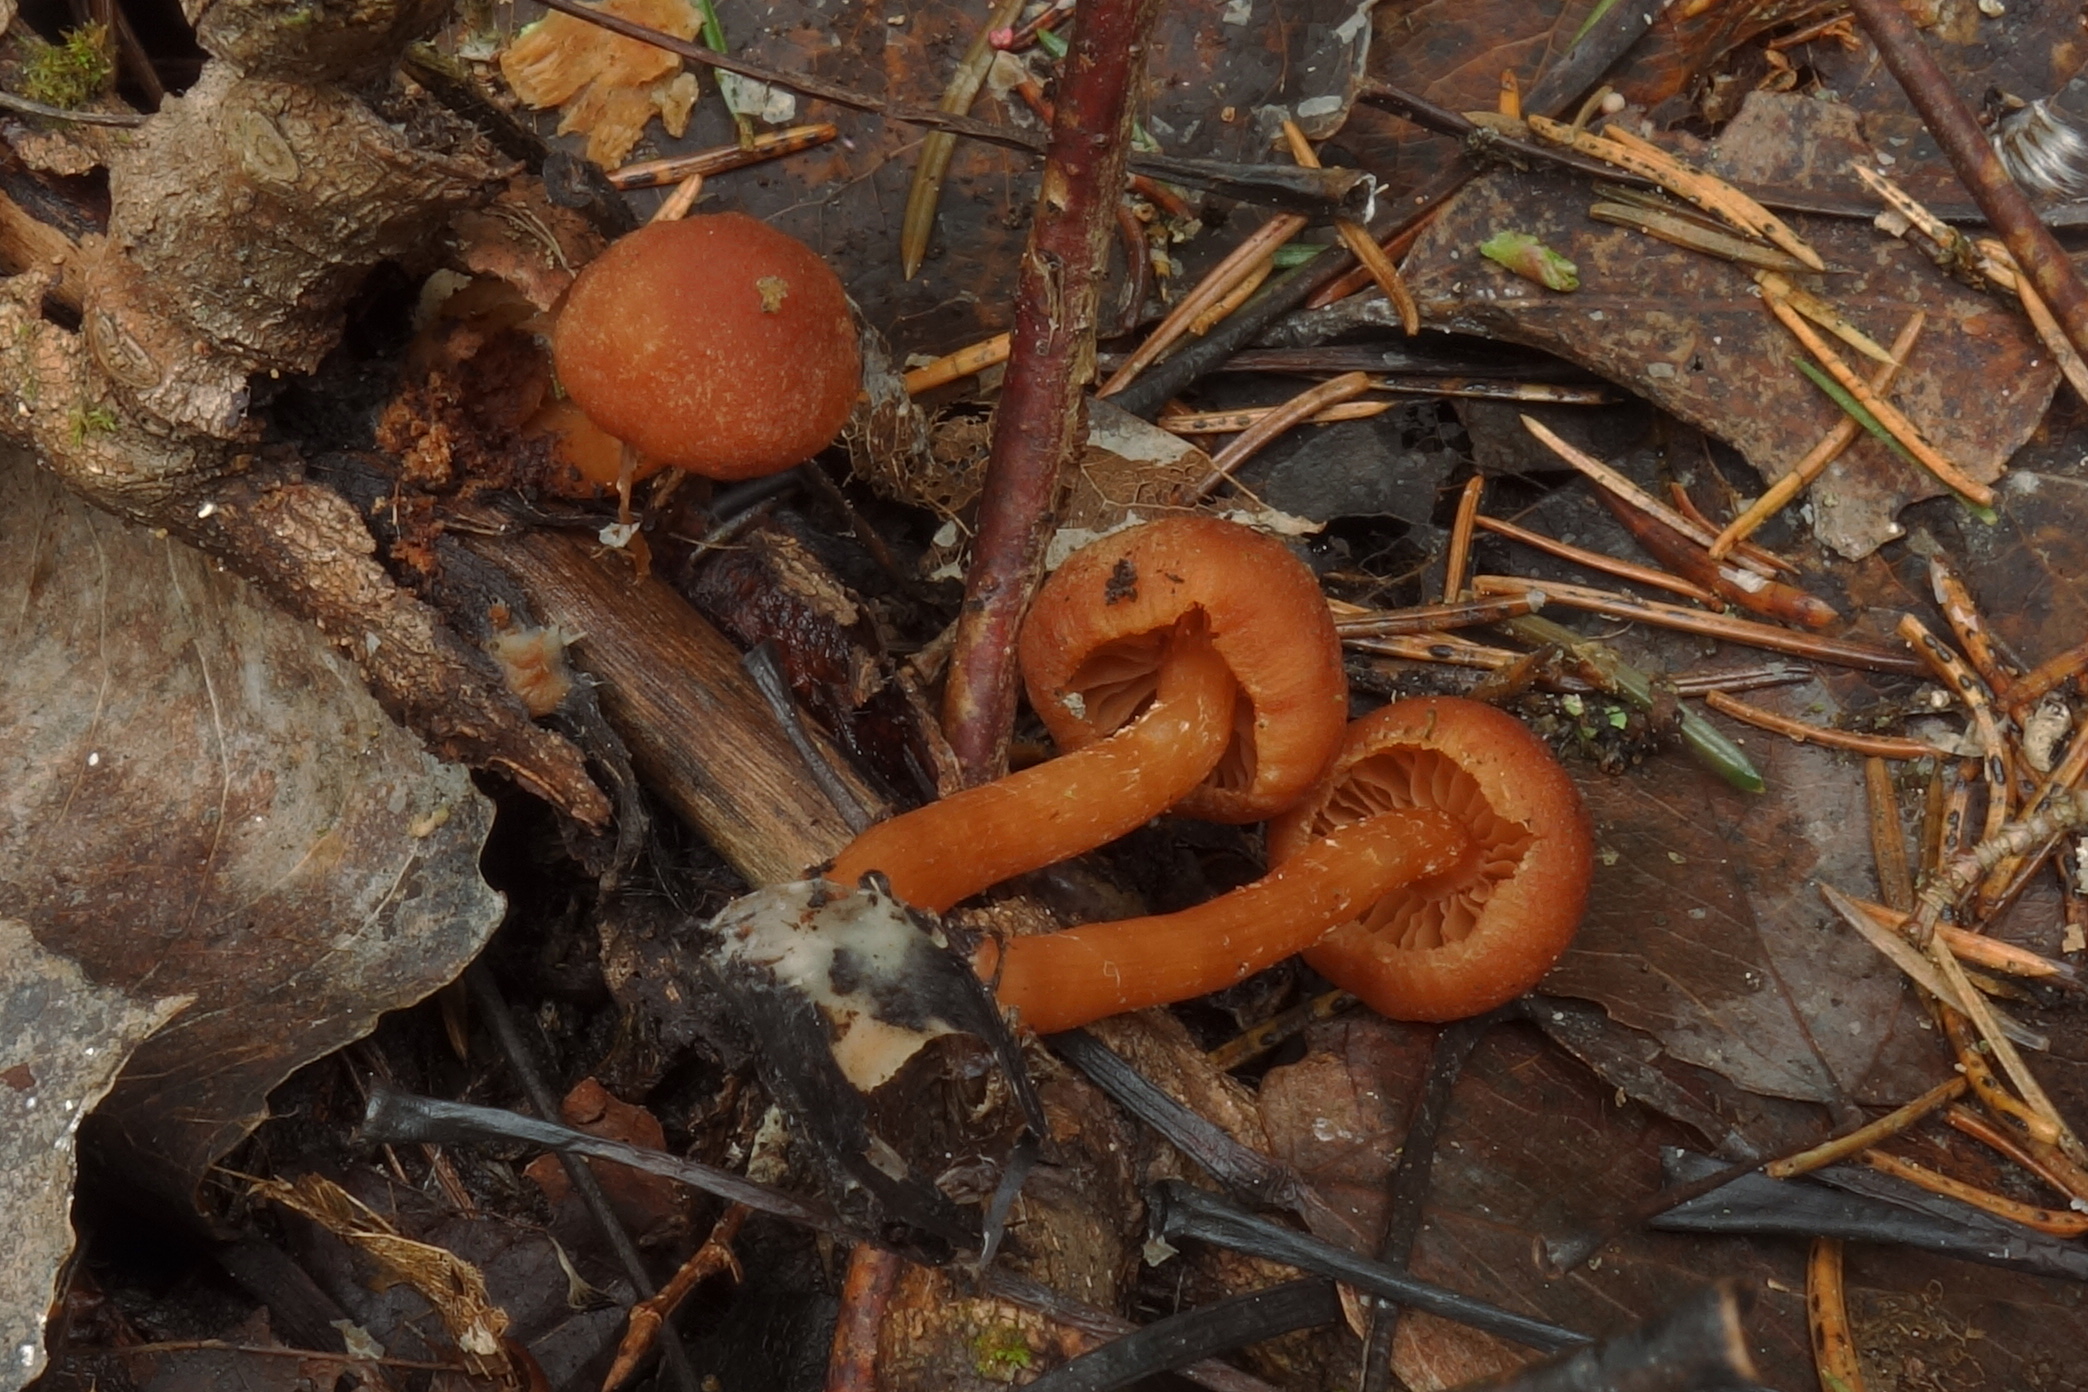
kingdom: Fungi
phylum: Basidiomycota
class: Agaricomycetes
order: Agaricales
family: Tubariaceae
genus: Tubaria
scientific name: Tubaria furfuracea
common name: Scurfy twiglet
